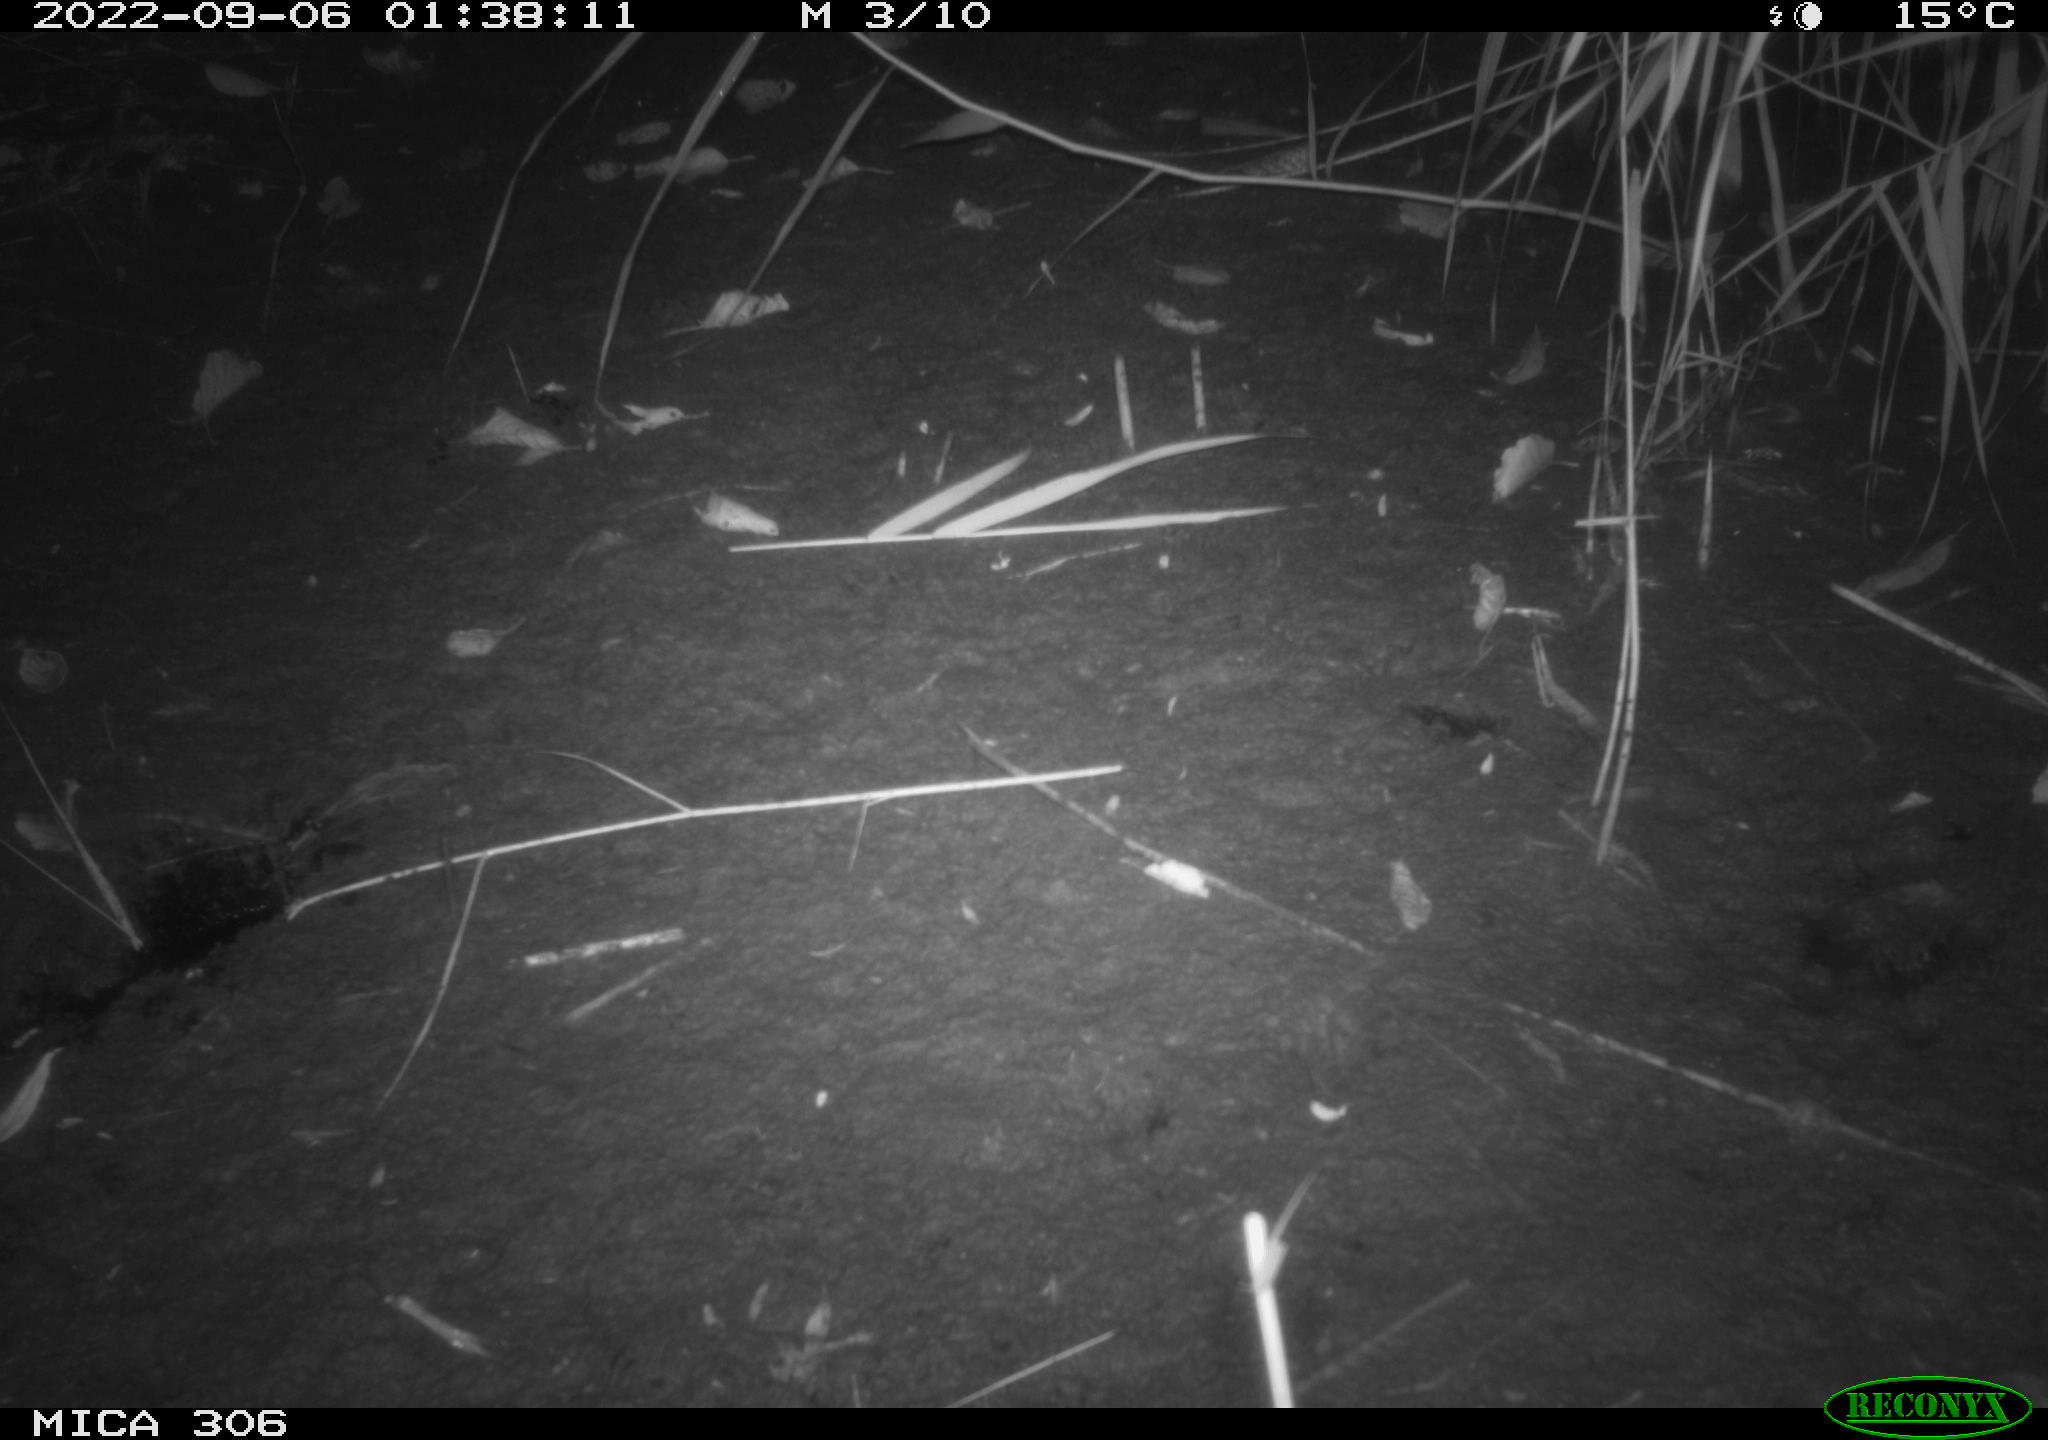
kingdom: Animalia
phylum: Chordata
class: Mammalia
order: Rodentia
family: Muridae
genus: Rattus
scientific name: Rattus norvegicus
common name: Brown rat
